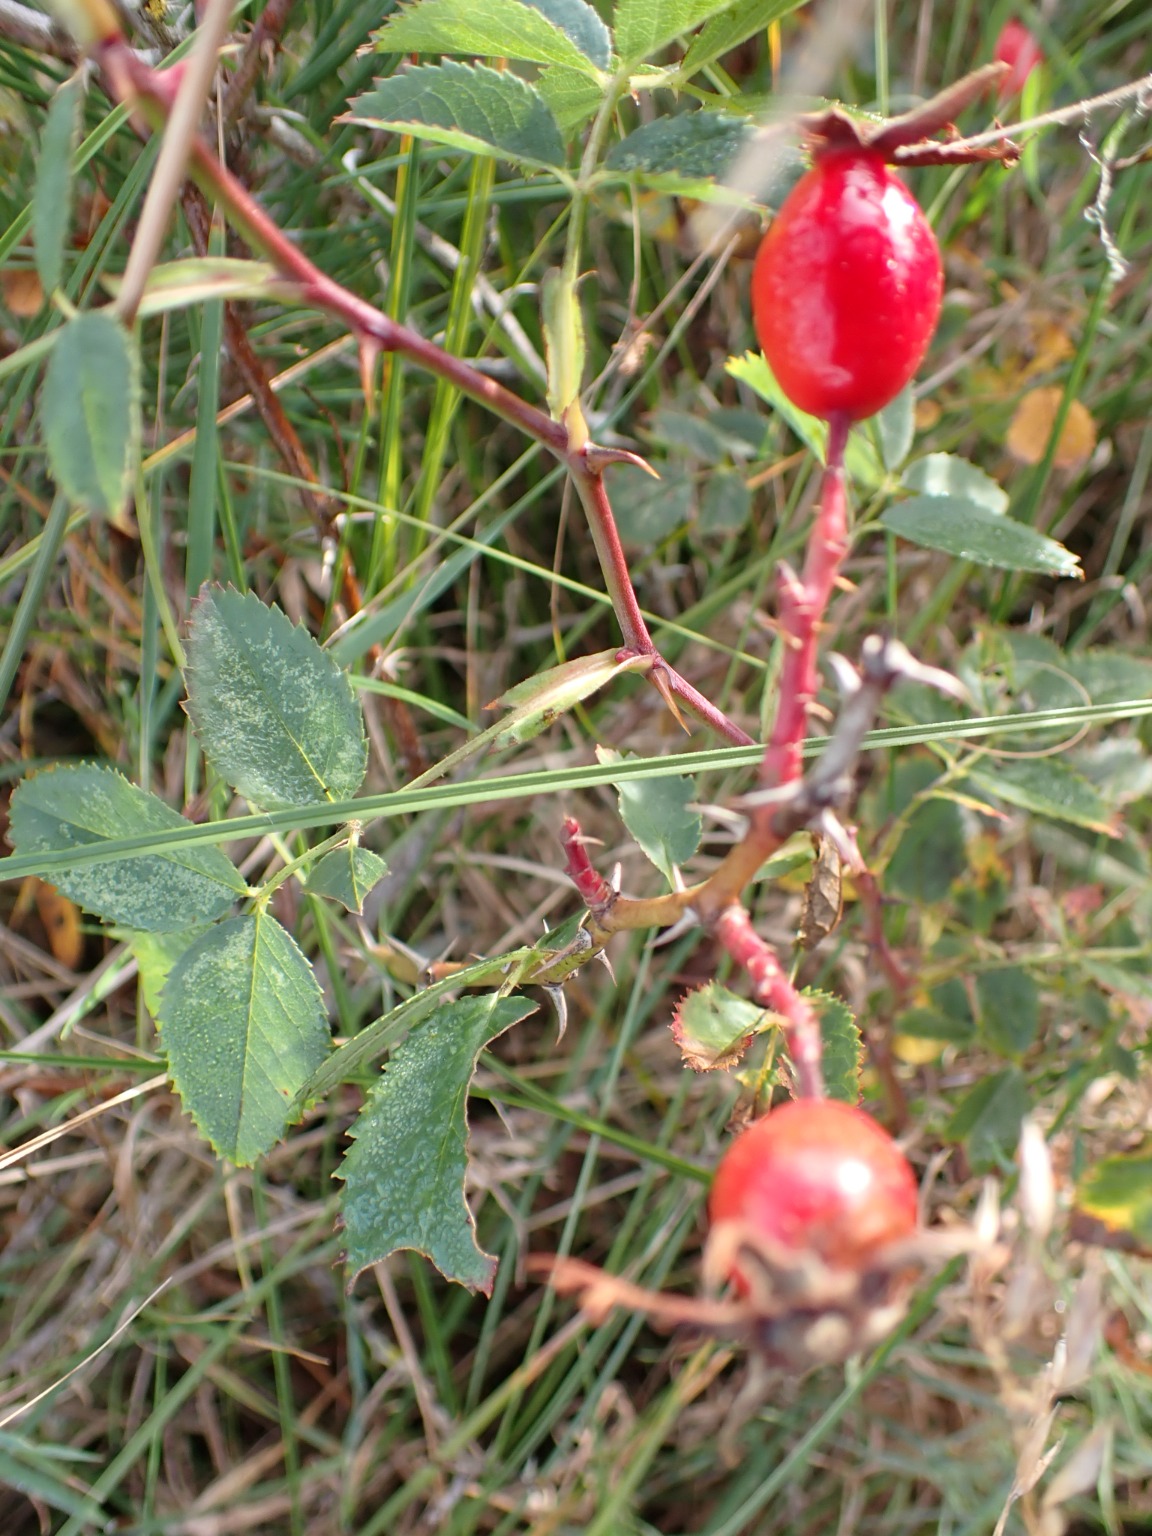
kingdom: Plantae
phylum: Tracheophyta
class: Magnoliopsida
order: Rosales
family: Rosaceae
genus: Rosa
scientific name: Rosa dumalis
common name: Blågrøn rose
